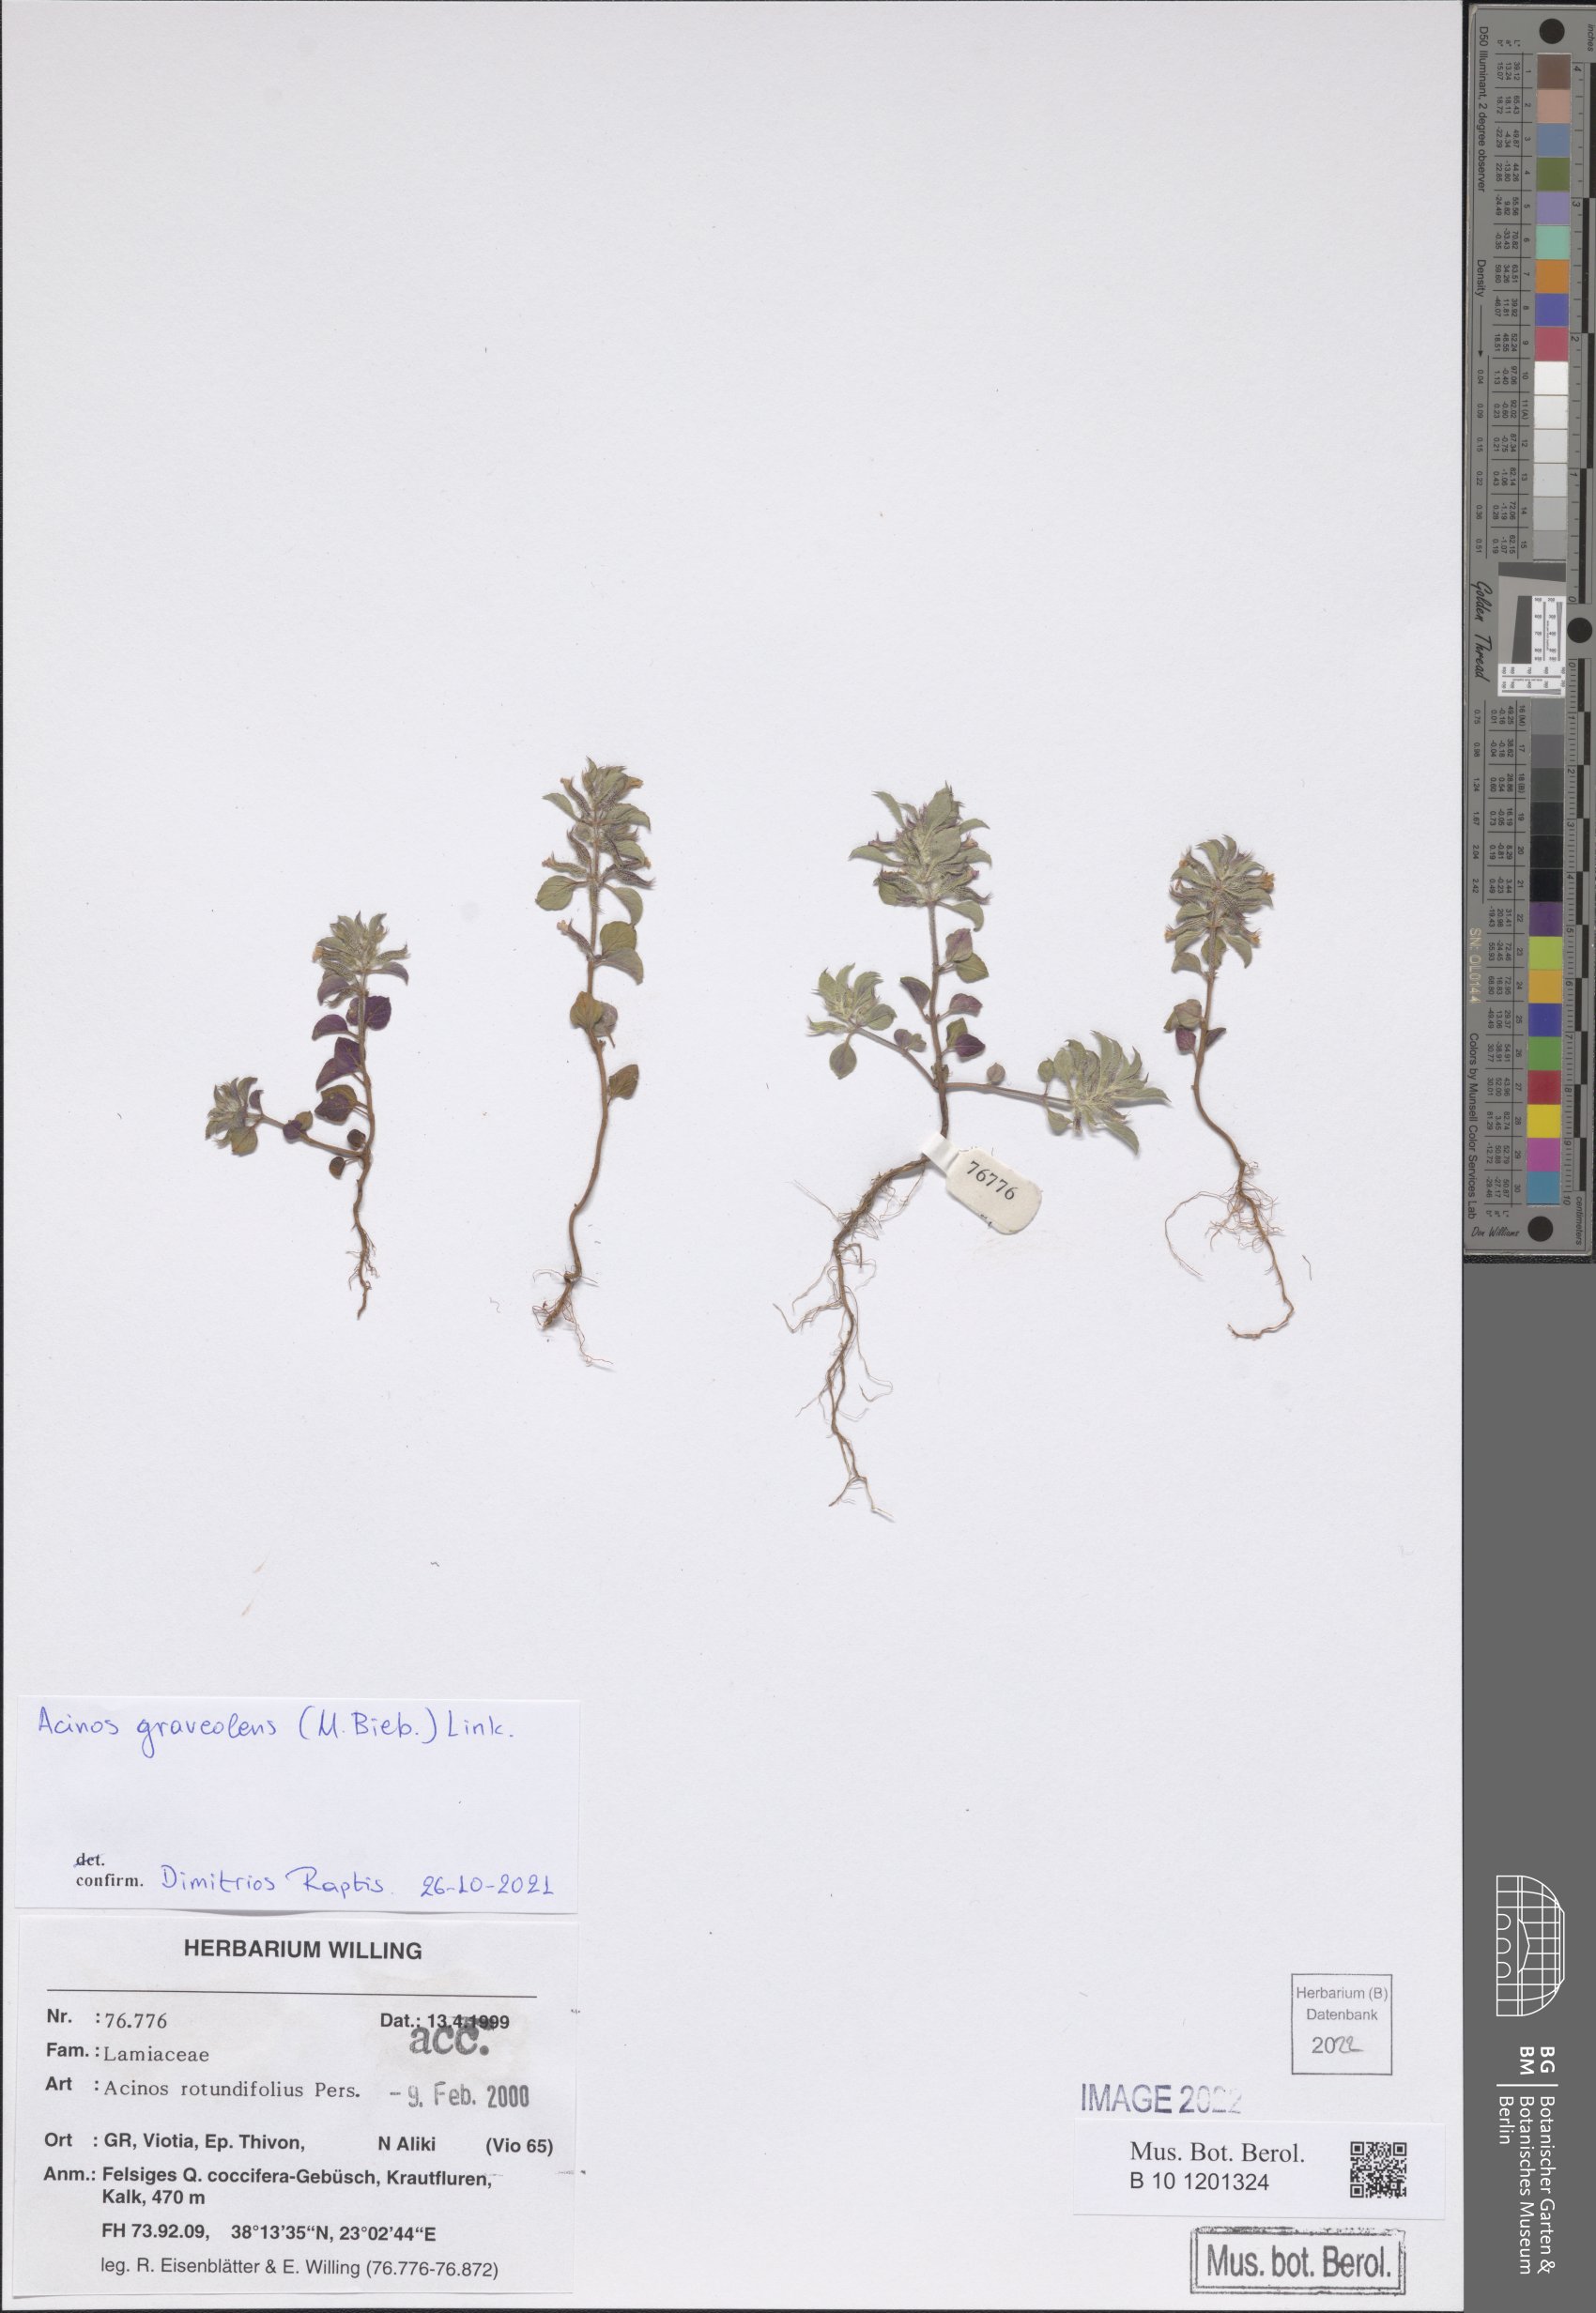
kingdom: Plantae
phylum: Tracheophyta
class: Magnoliopsida
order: Lamiales
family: Lamiaceae
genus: Clinopodium
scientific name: Clinopodium graveolens
